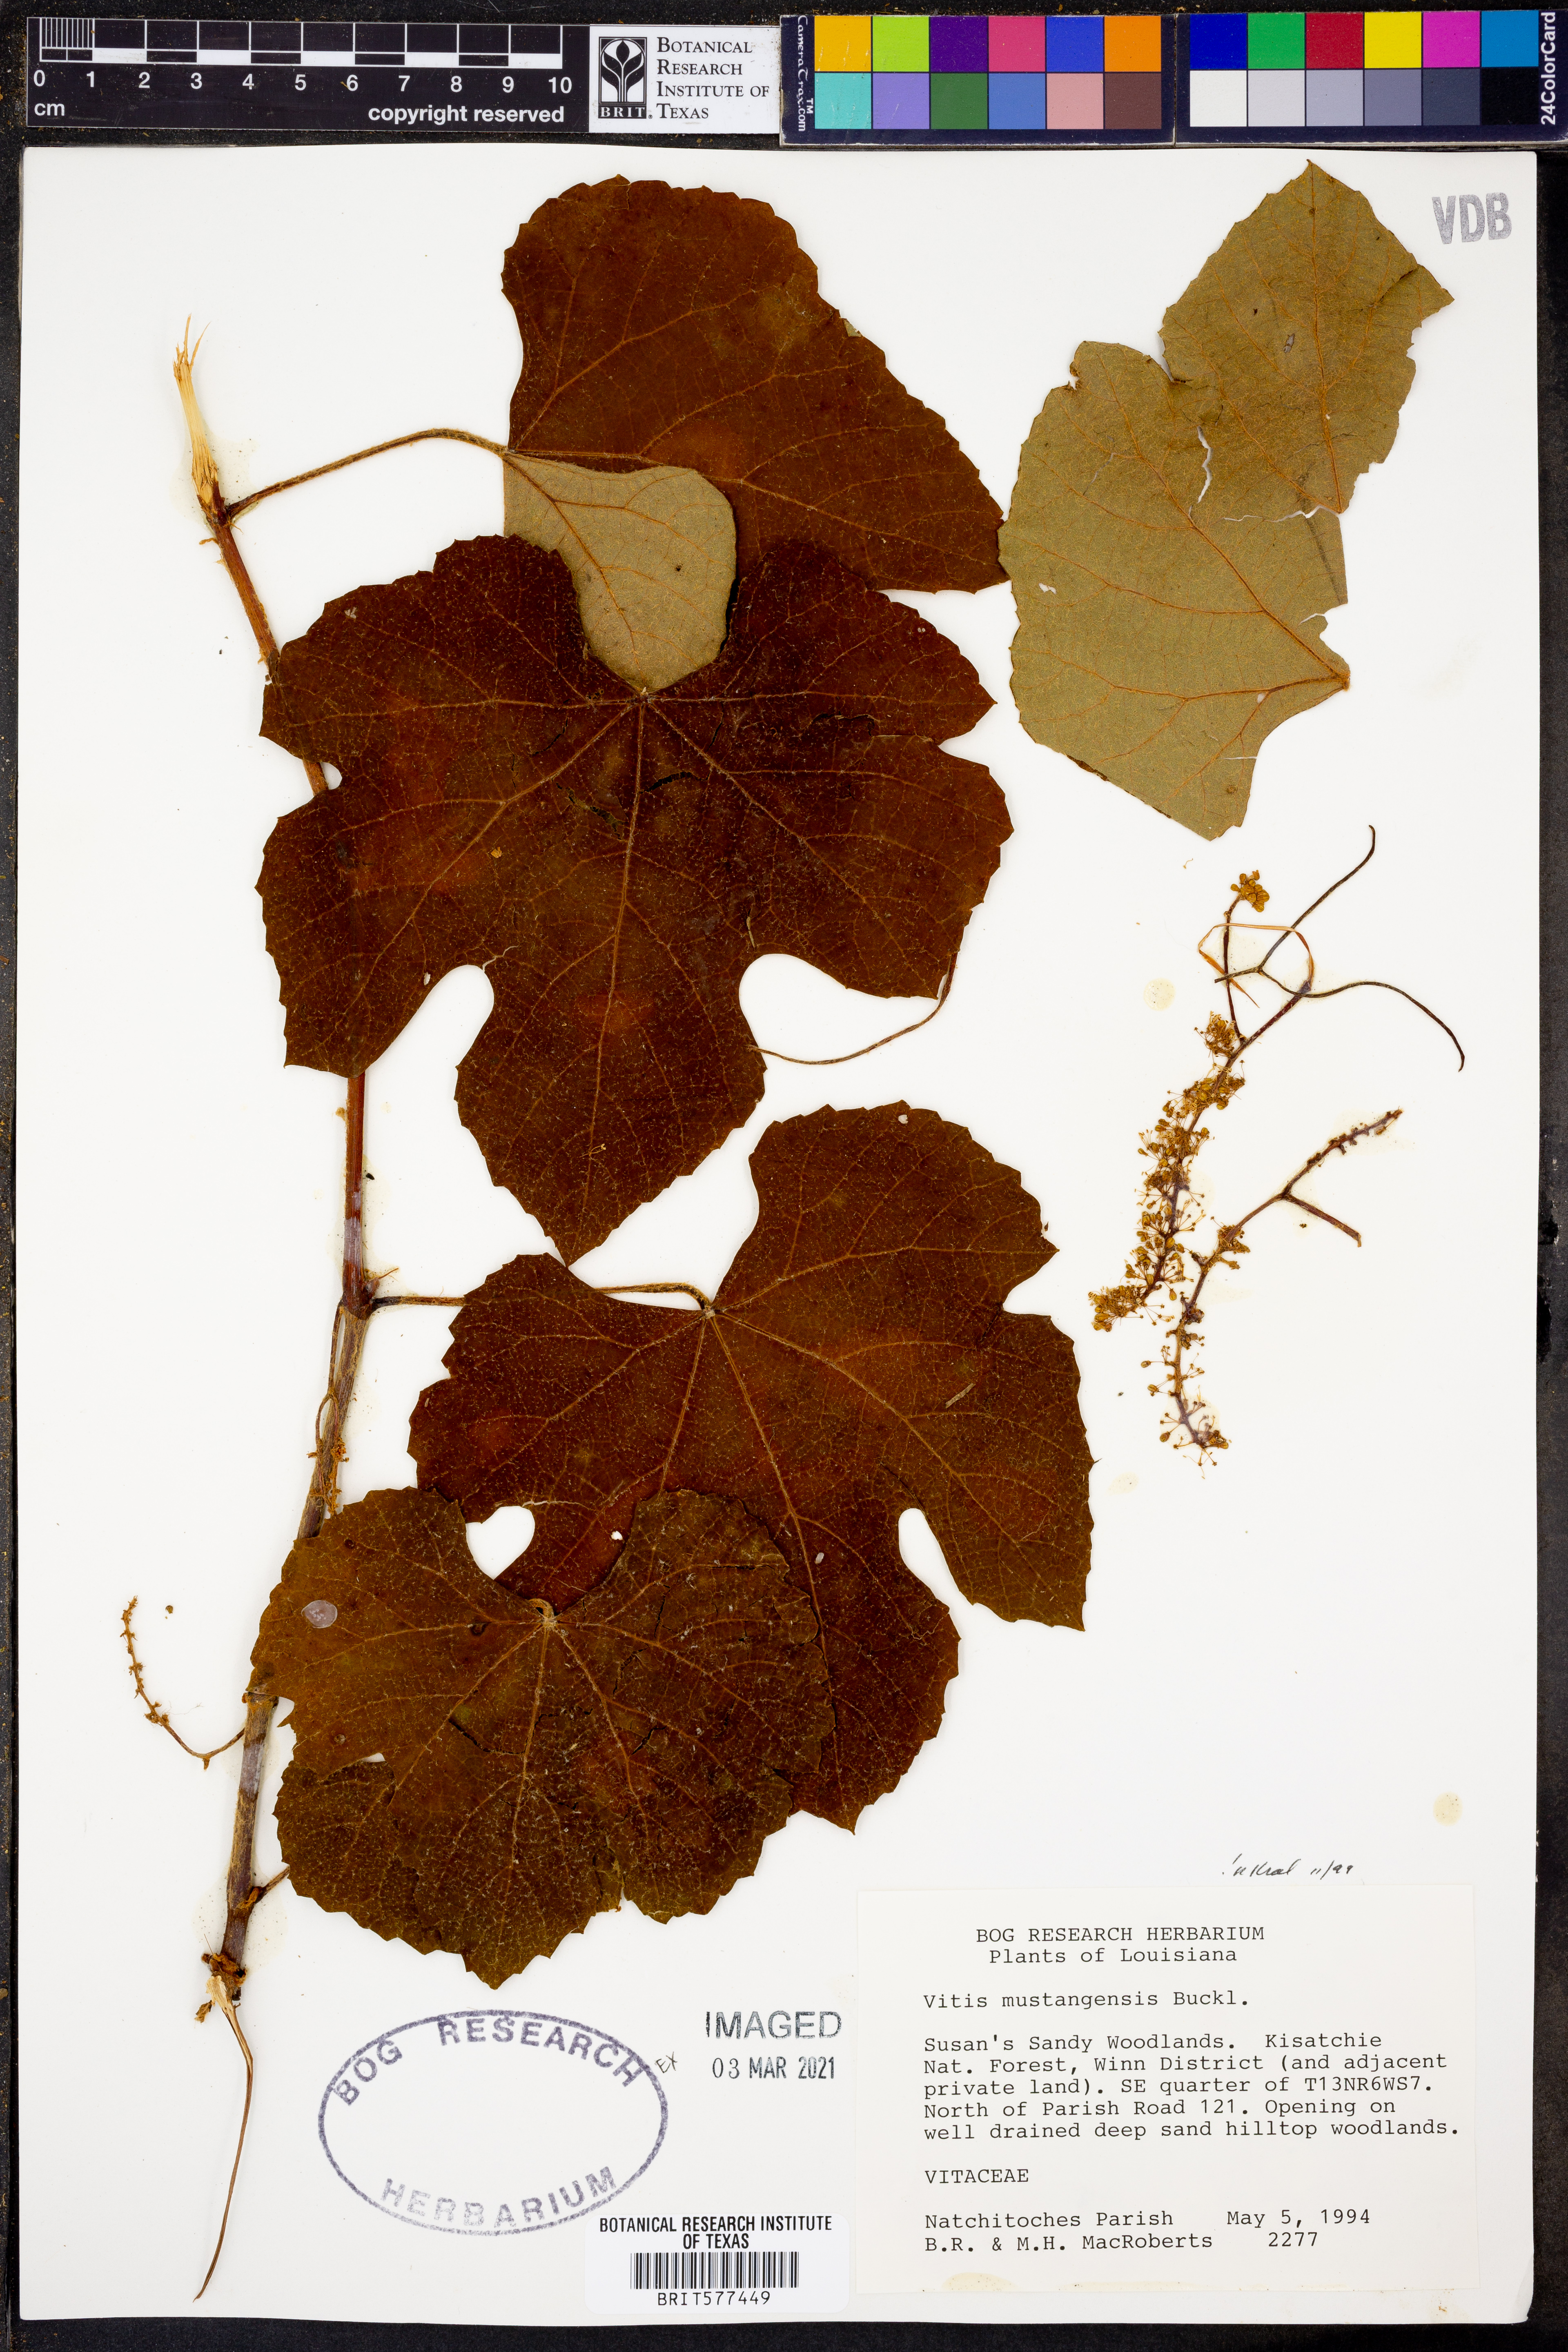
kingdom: Plantae
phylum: Tracheophyta
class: Magnoliopsida
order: Vitales
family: Vitaceae
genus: Vitis
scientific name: Vitis mustangensis
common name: Mustang grape
